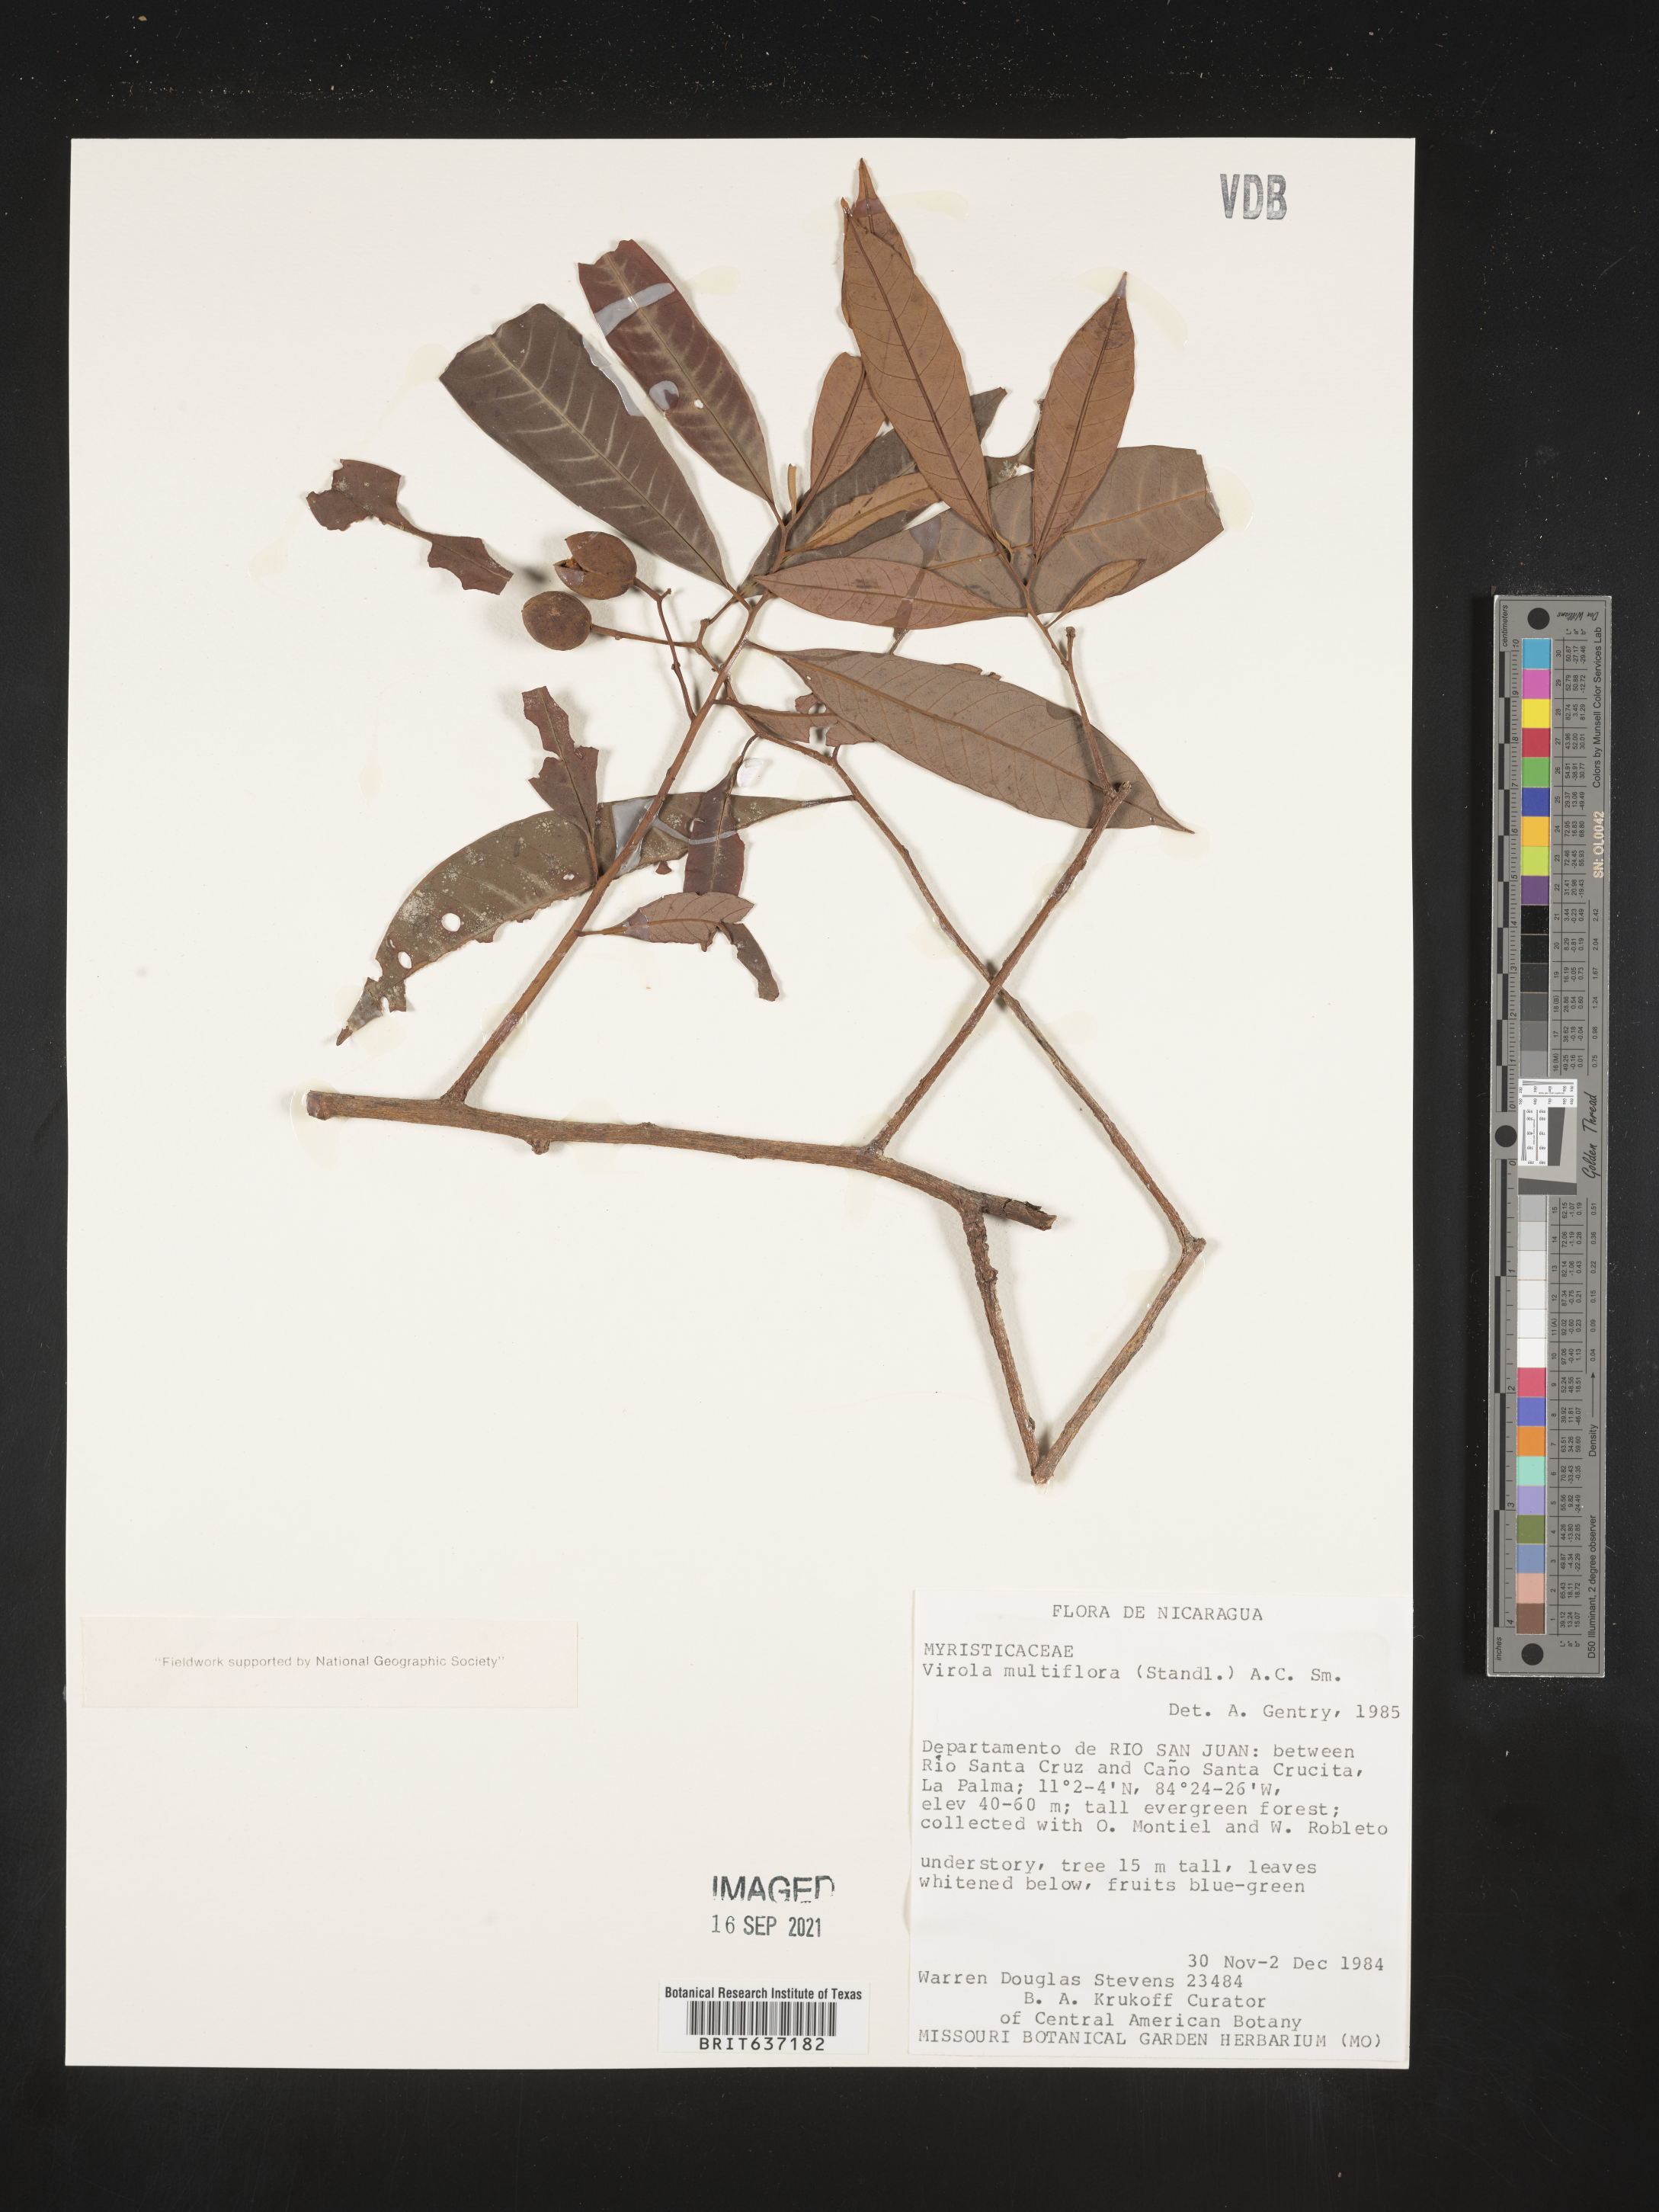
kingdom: Plantae
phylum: Tracheophyta
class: Magnoliopsida
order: Magnoliales
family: Myristicaceae
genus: Virola
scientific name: Virola
